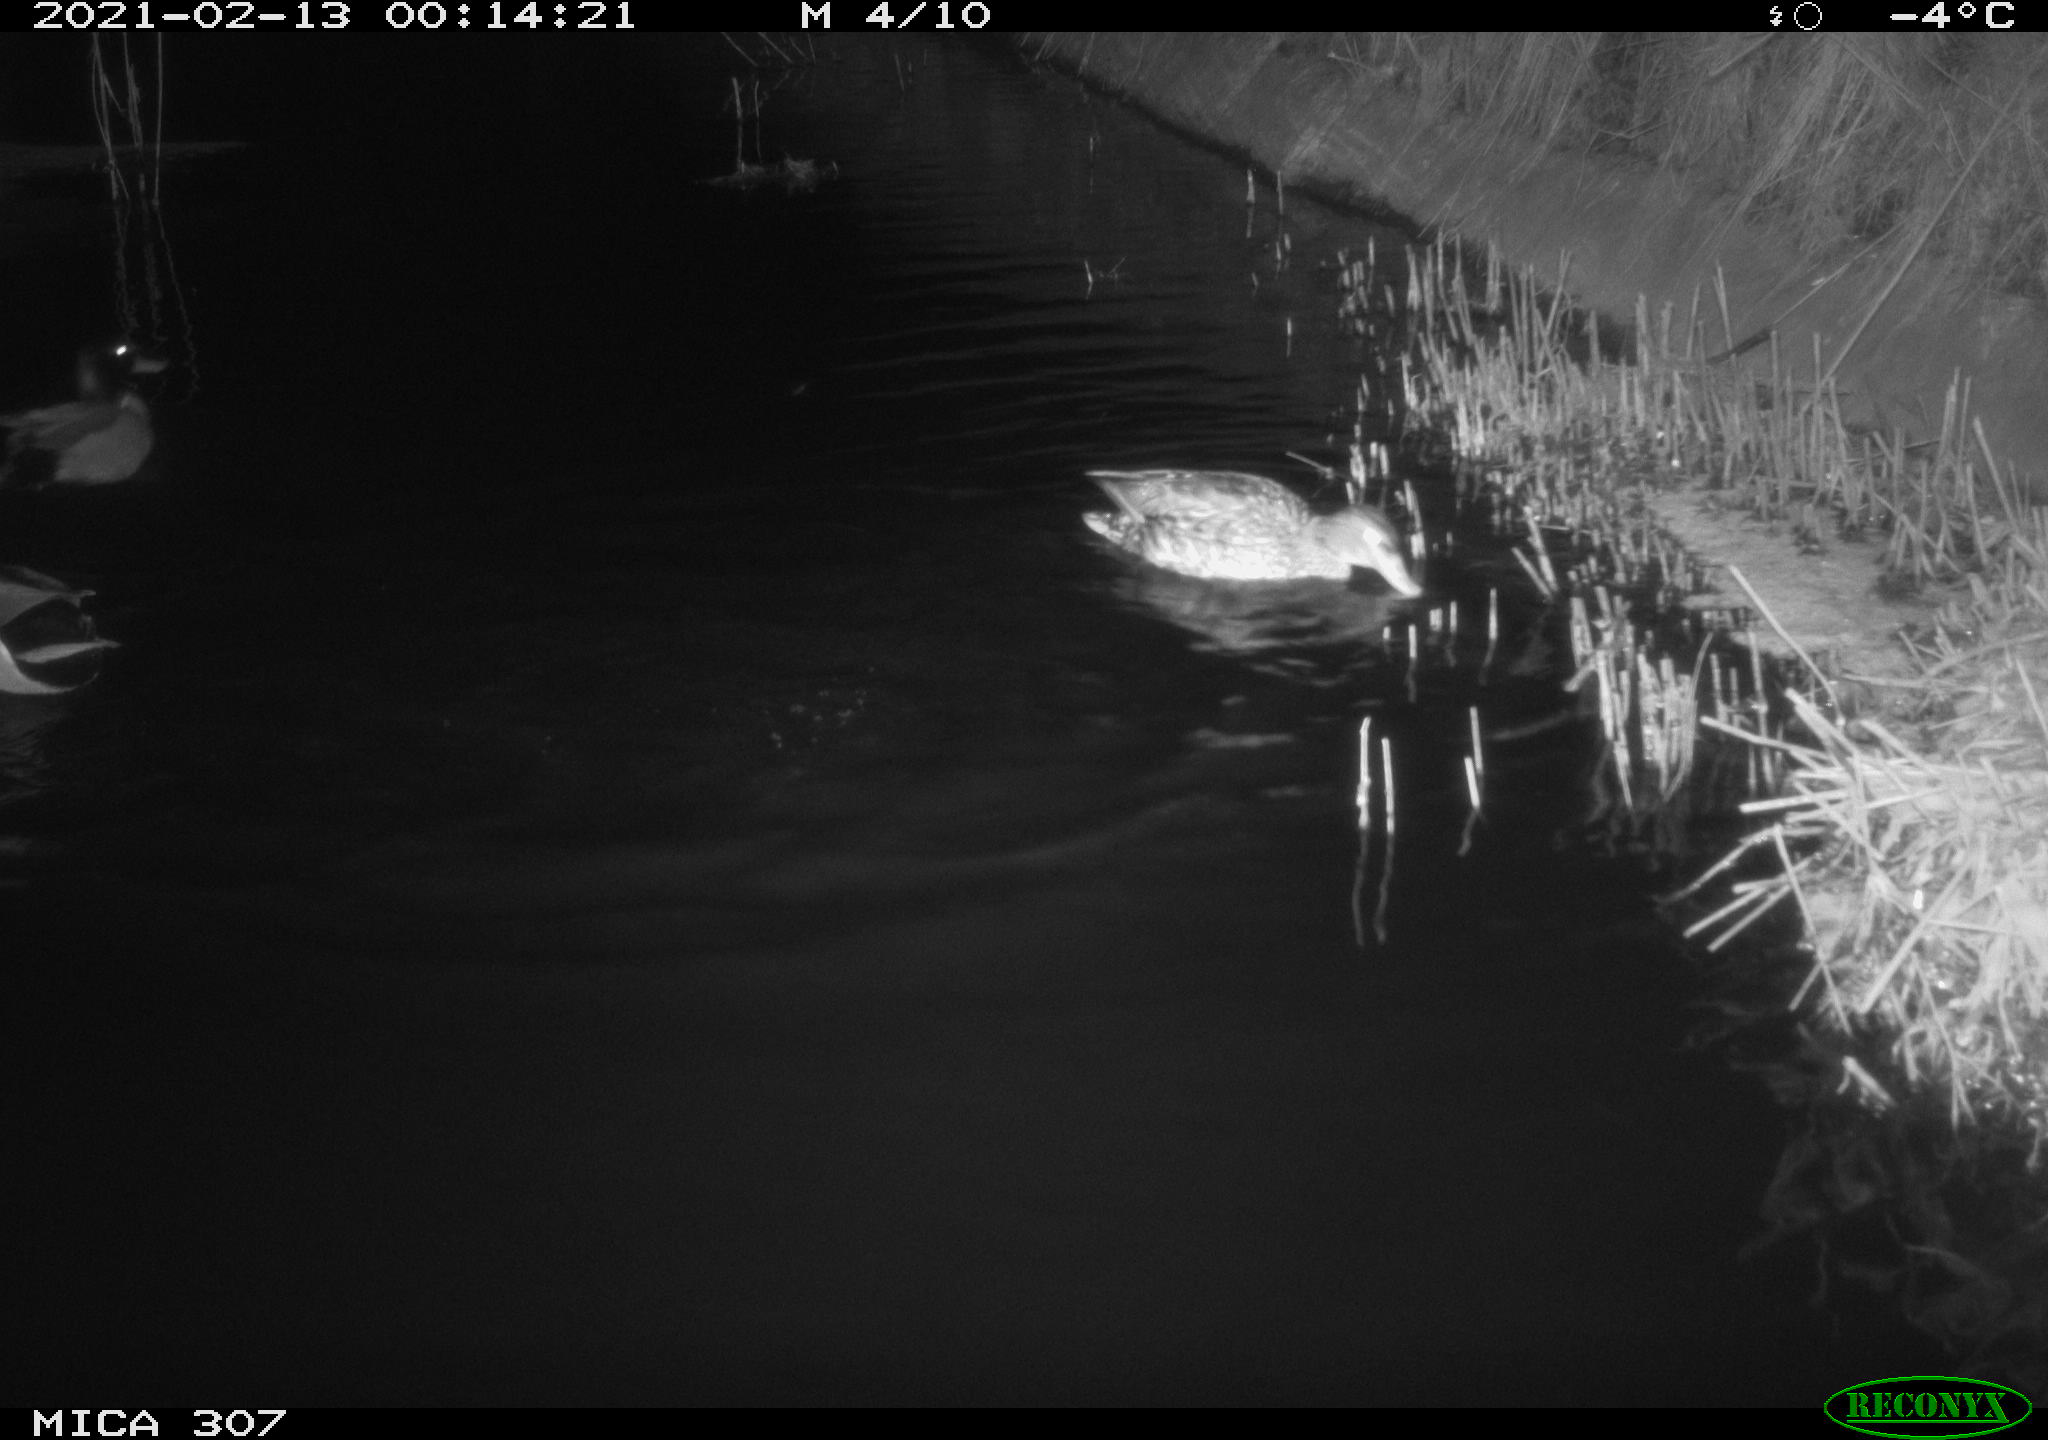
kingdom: Animalia
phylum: Chordata
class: Aves
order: Anseriformes
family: Anatidae
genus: Anas
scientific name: Anas platyrhynchos
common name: Mallard
